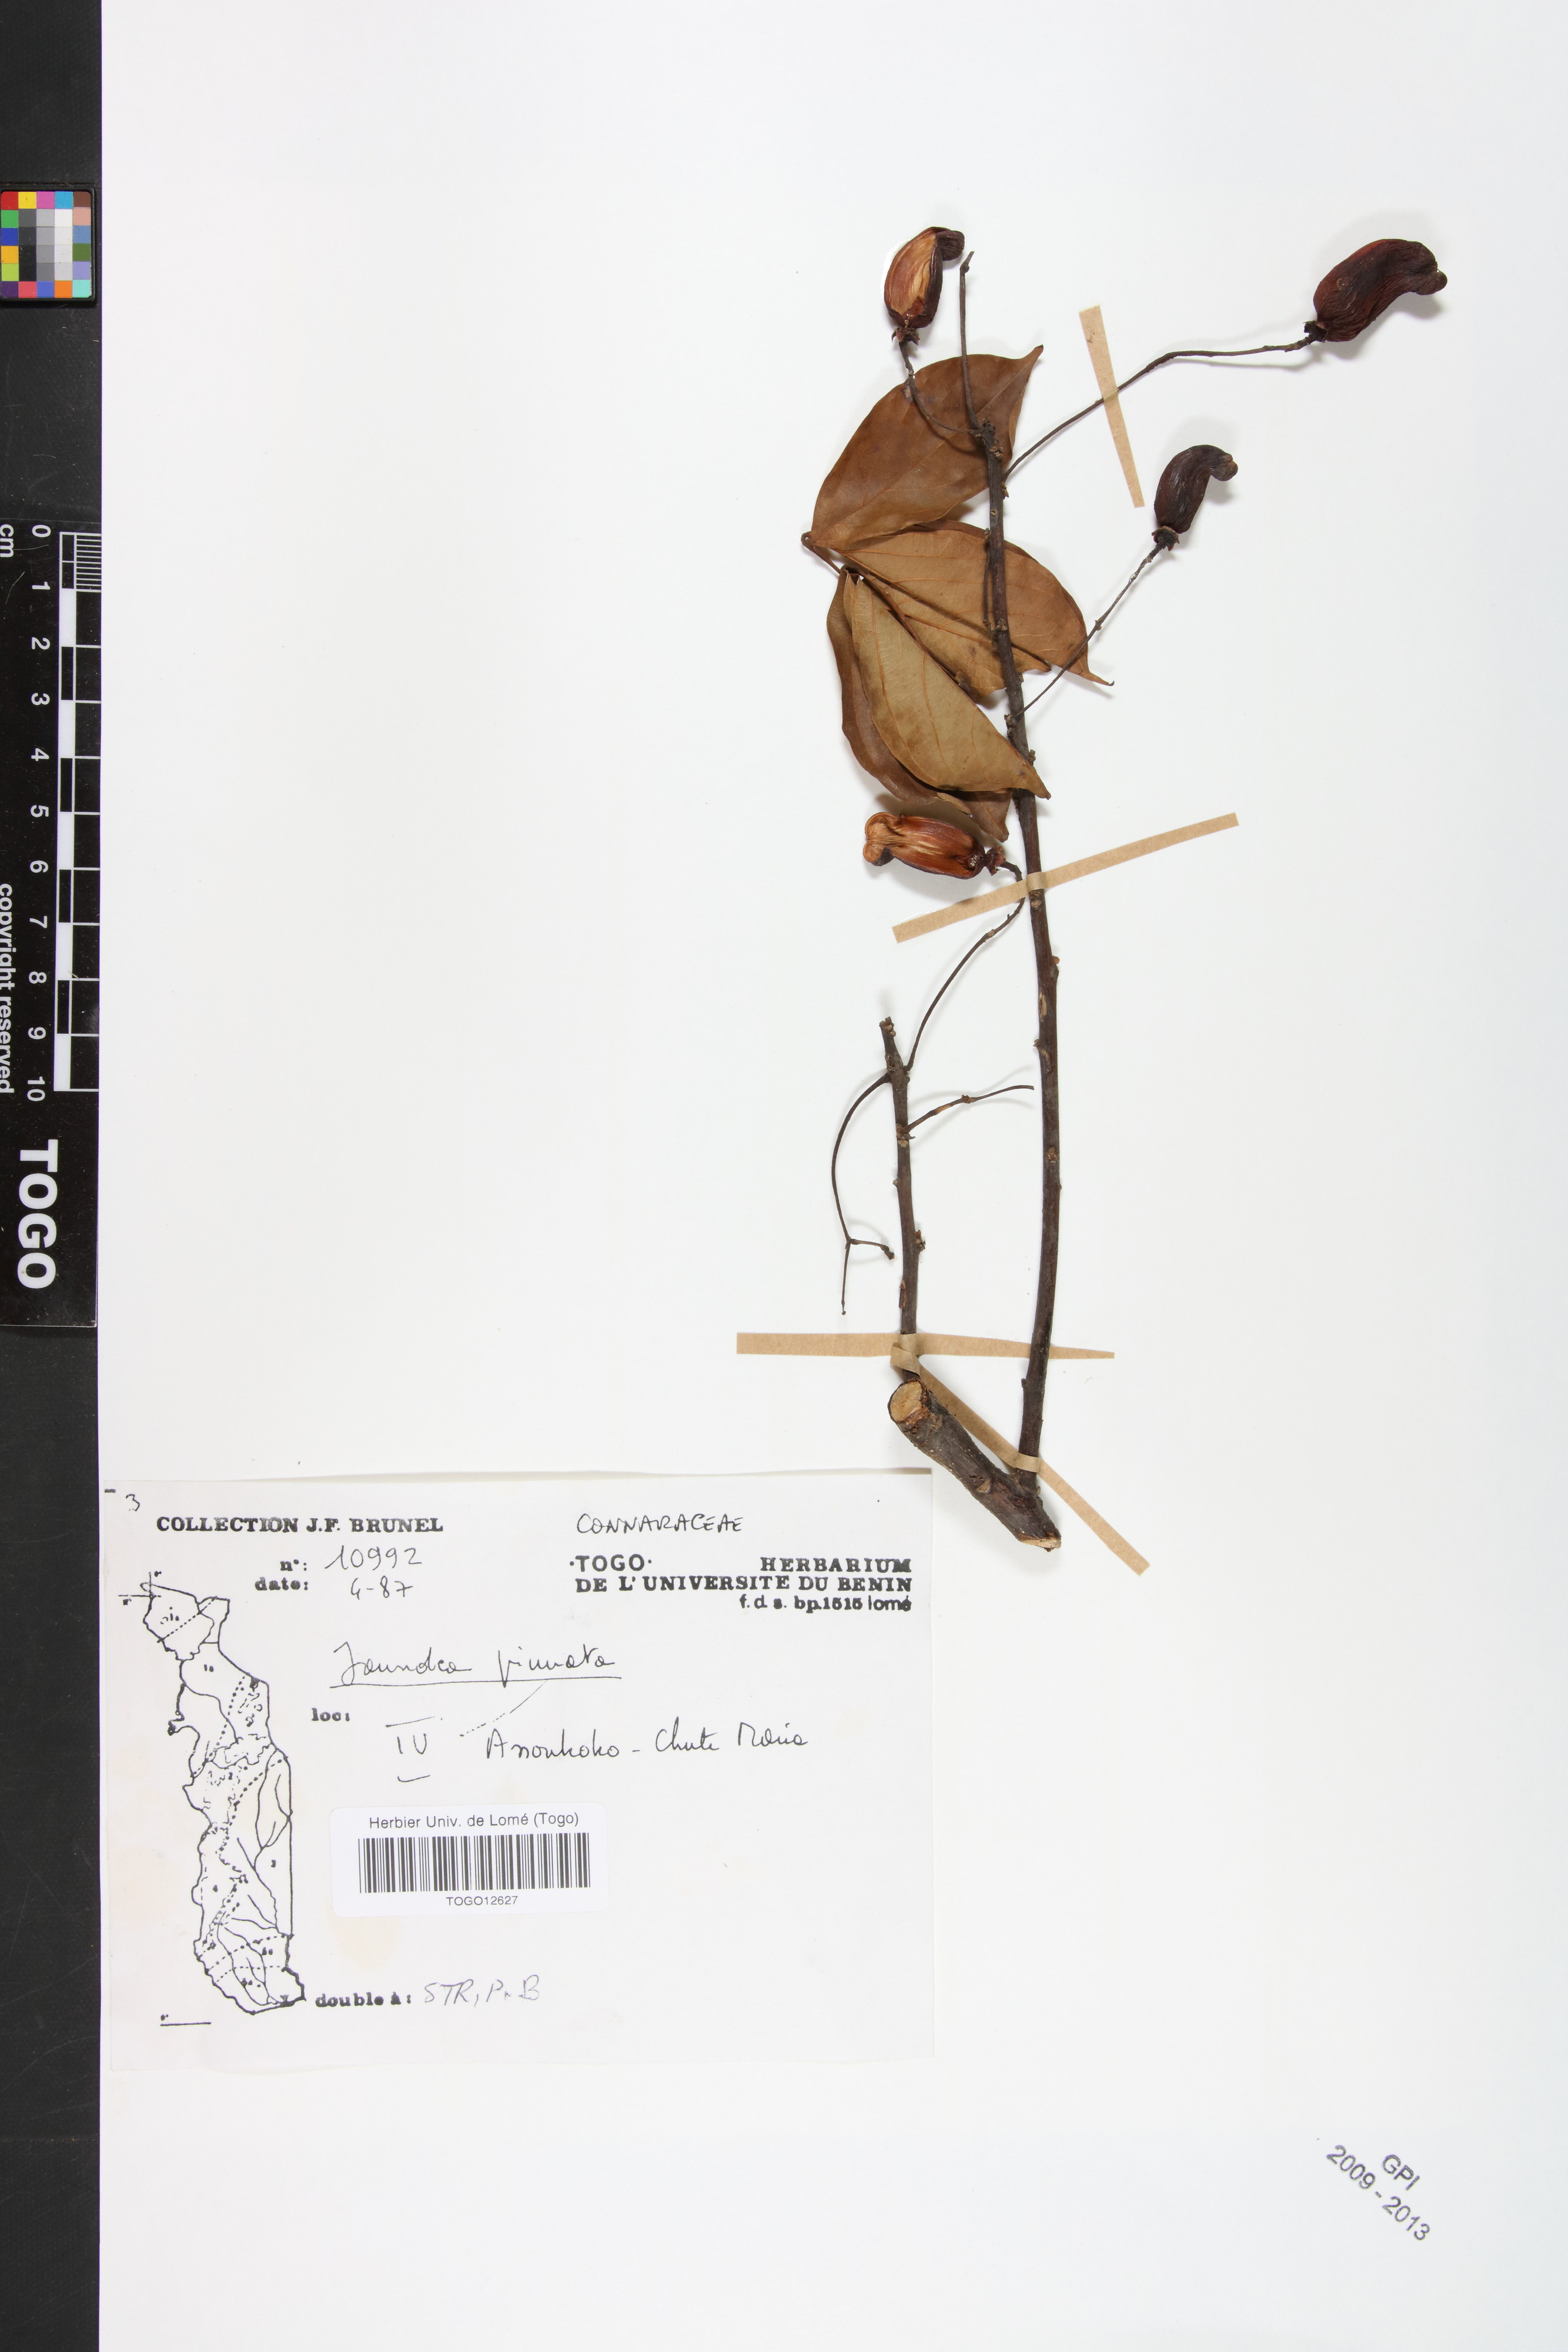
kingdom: Plantae
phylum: Tracheophyta
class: Magnoliopsida
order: Oxalidales
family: Connaraceae
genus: Rourea
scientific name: Rourea thomsonii
